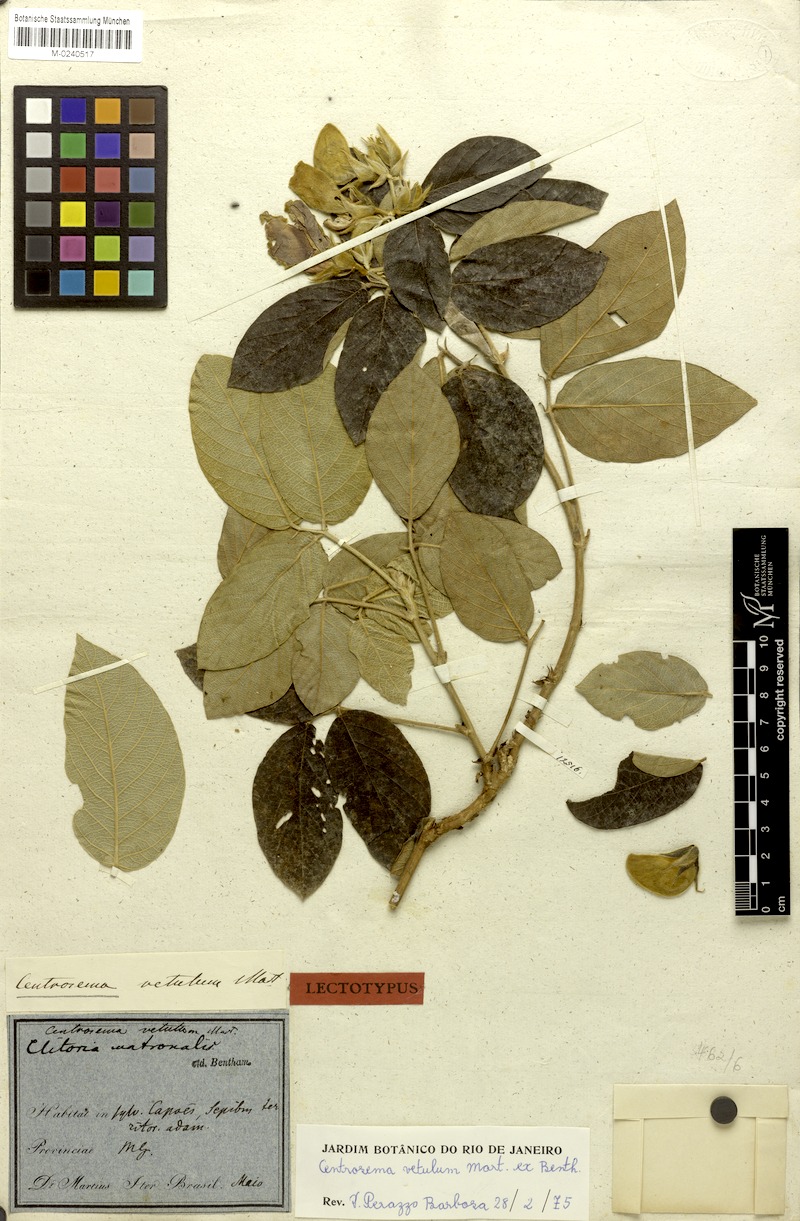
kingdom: Plantae
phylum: Tracheophyta
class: Magnoliopsida
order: Fabales
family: Fabaceae
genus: Centrosema
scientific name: Centrosema vetulum
